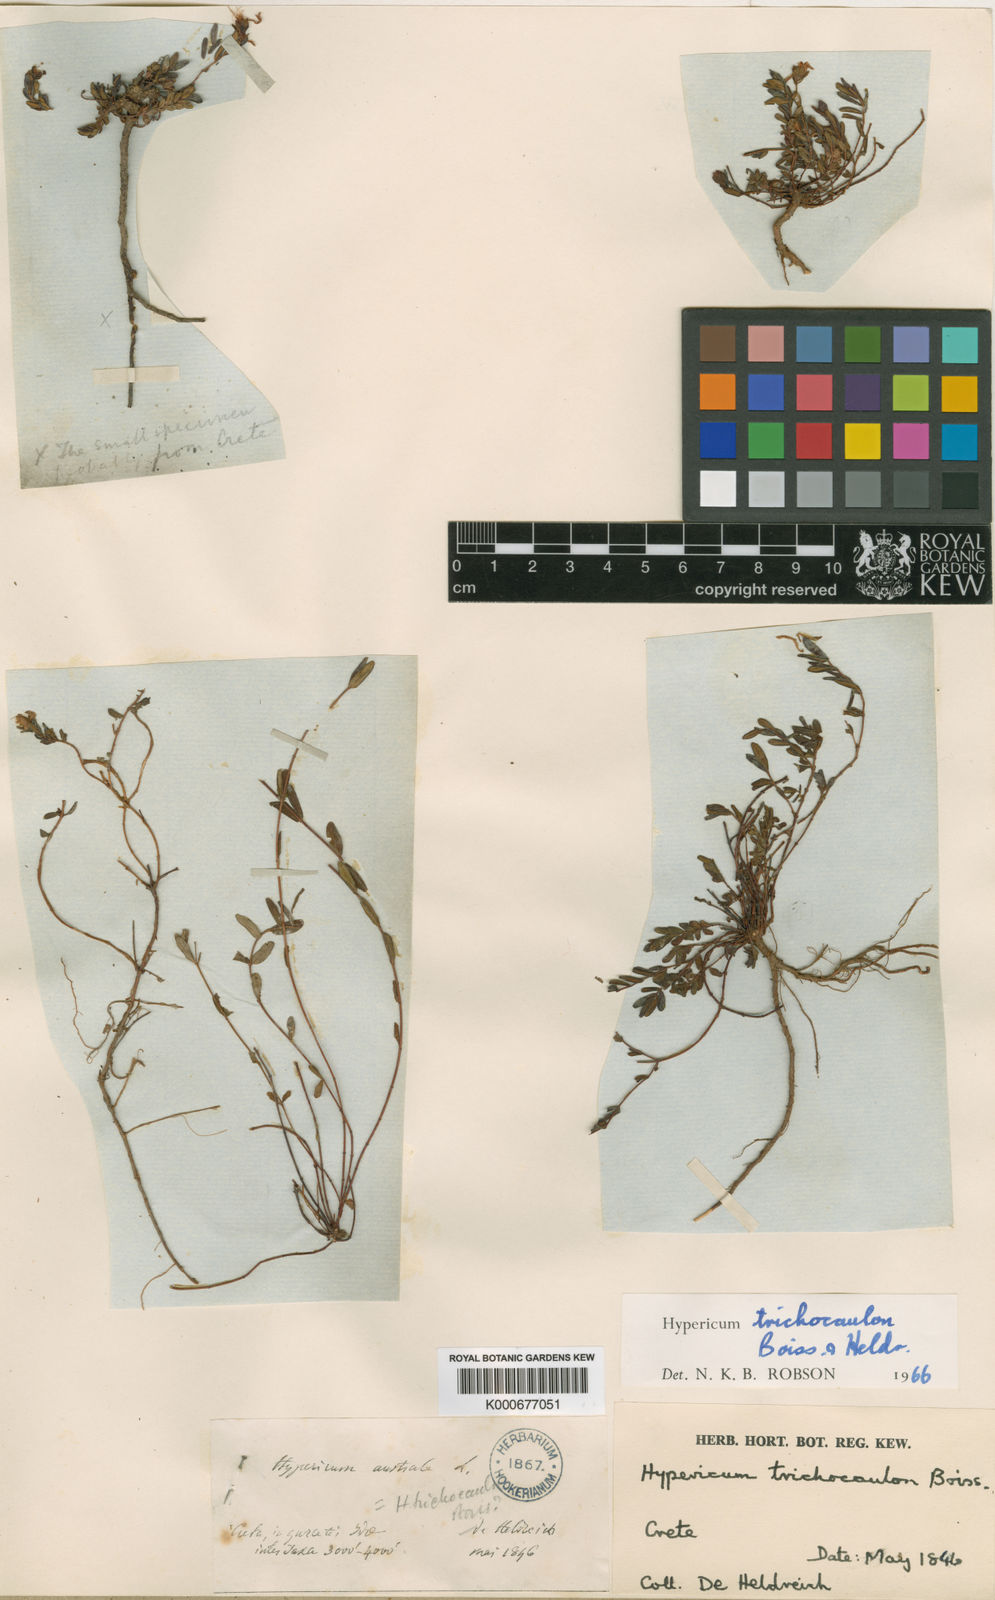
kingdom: Plantae
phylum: Tracheophyta
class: Magnoliopsida
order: Malpighiales
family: Hypericaceae
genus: Hypericum
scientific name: Hypericum trichocaulon
